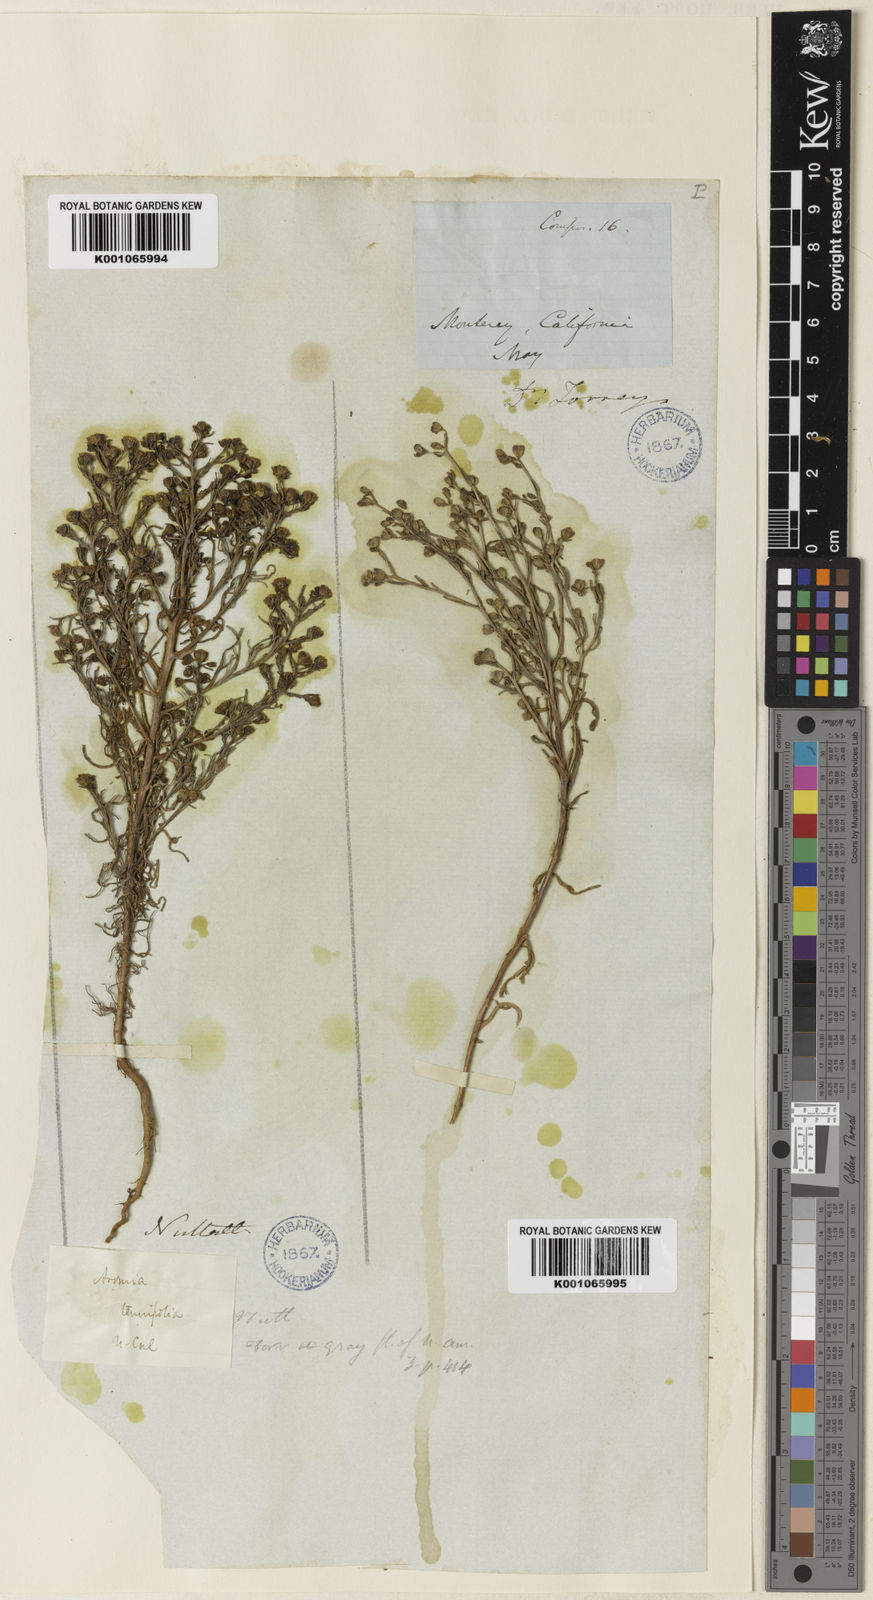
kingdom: Plantae
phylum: Tracheophyta
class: Magnoliopsida
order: Asterales
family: Asteraceae
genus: Amblyopappus
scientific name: Amblyopappus pusillus
